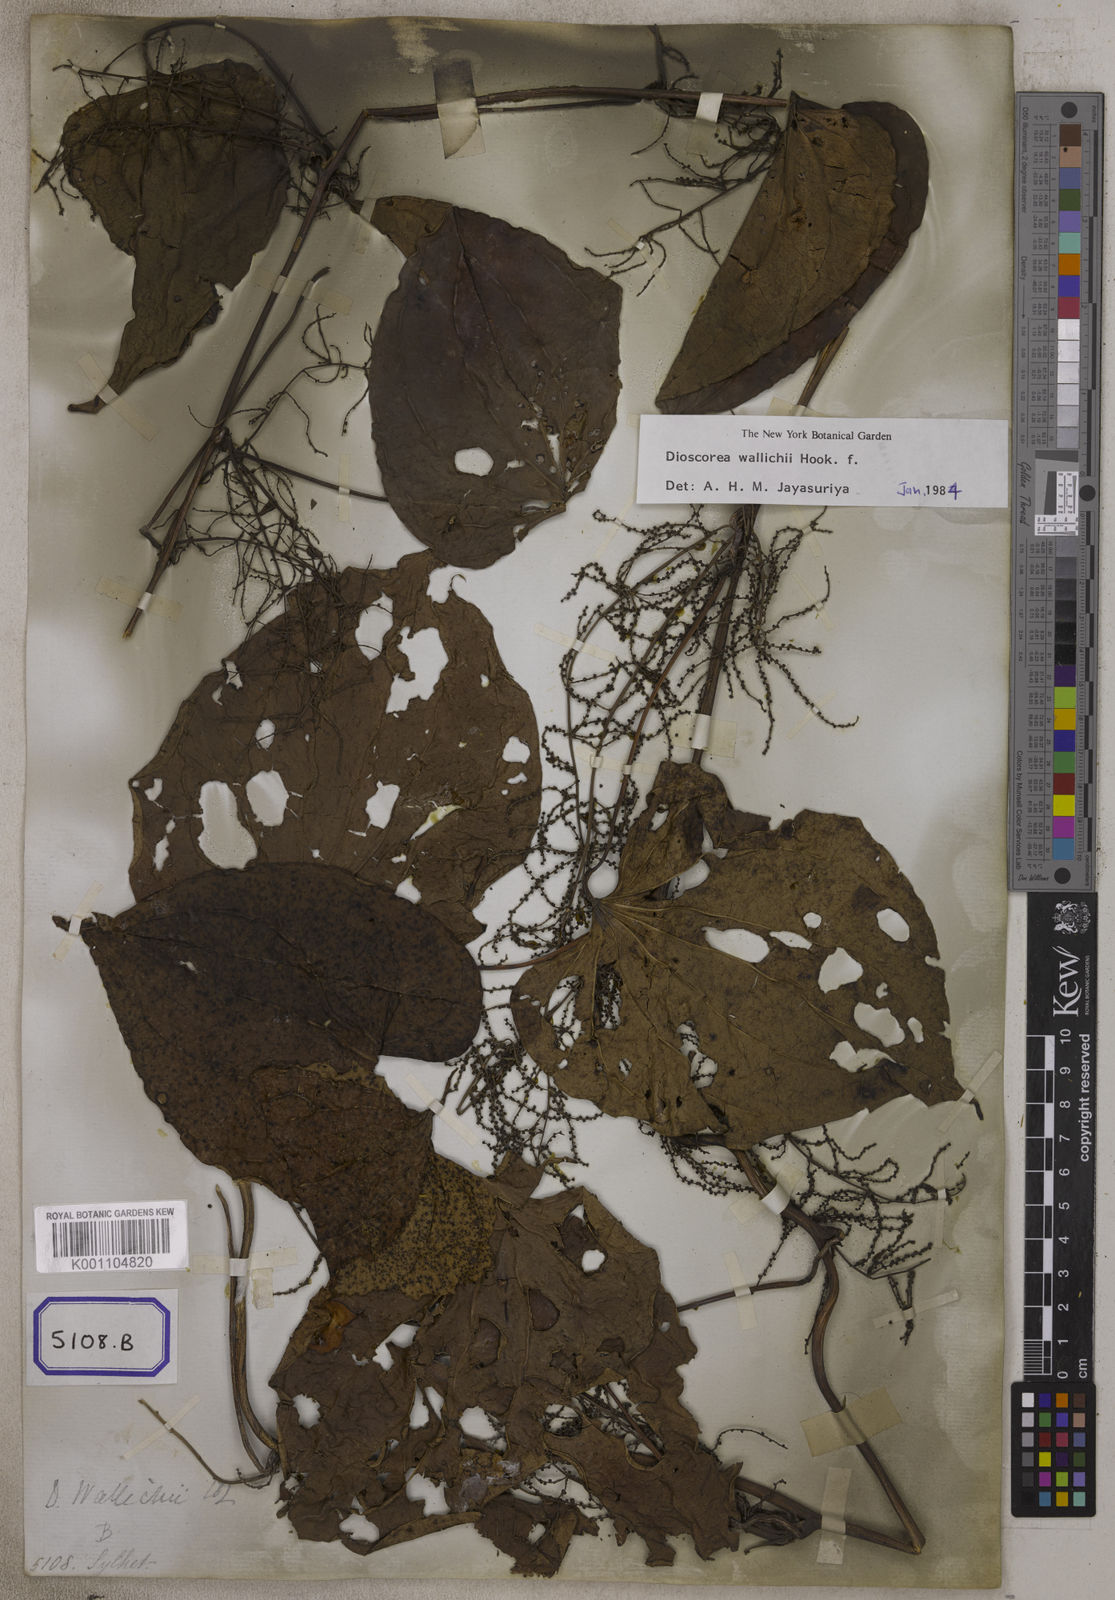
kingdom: Plantae
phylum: Tracheophyta
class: Liliopsida
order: Dioscoreales
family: Dioscoreaceae
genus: Dioscorea
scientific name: Dioscorea villosa
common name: Wild yam
